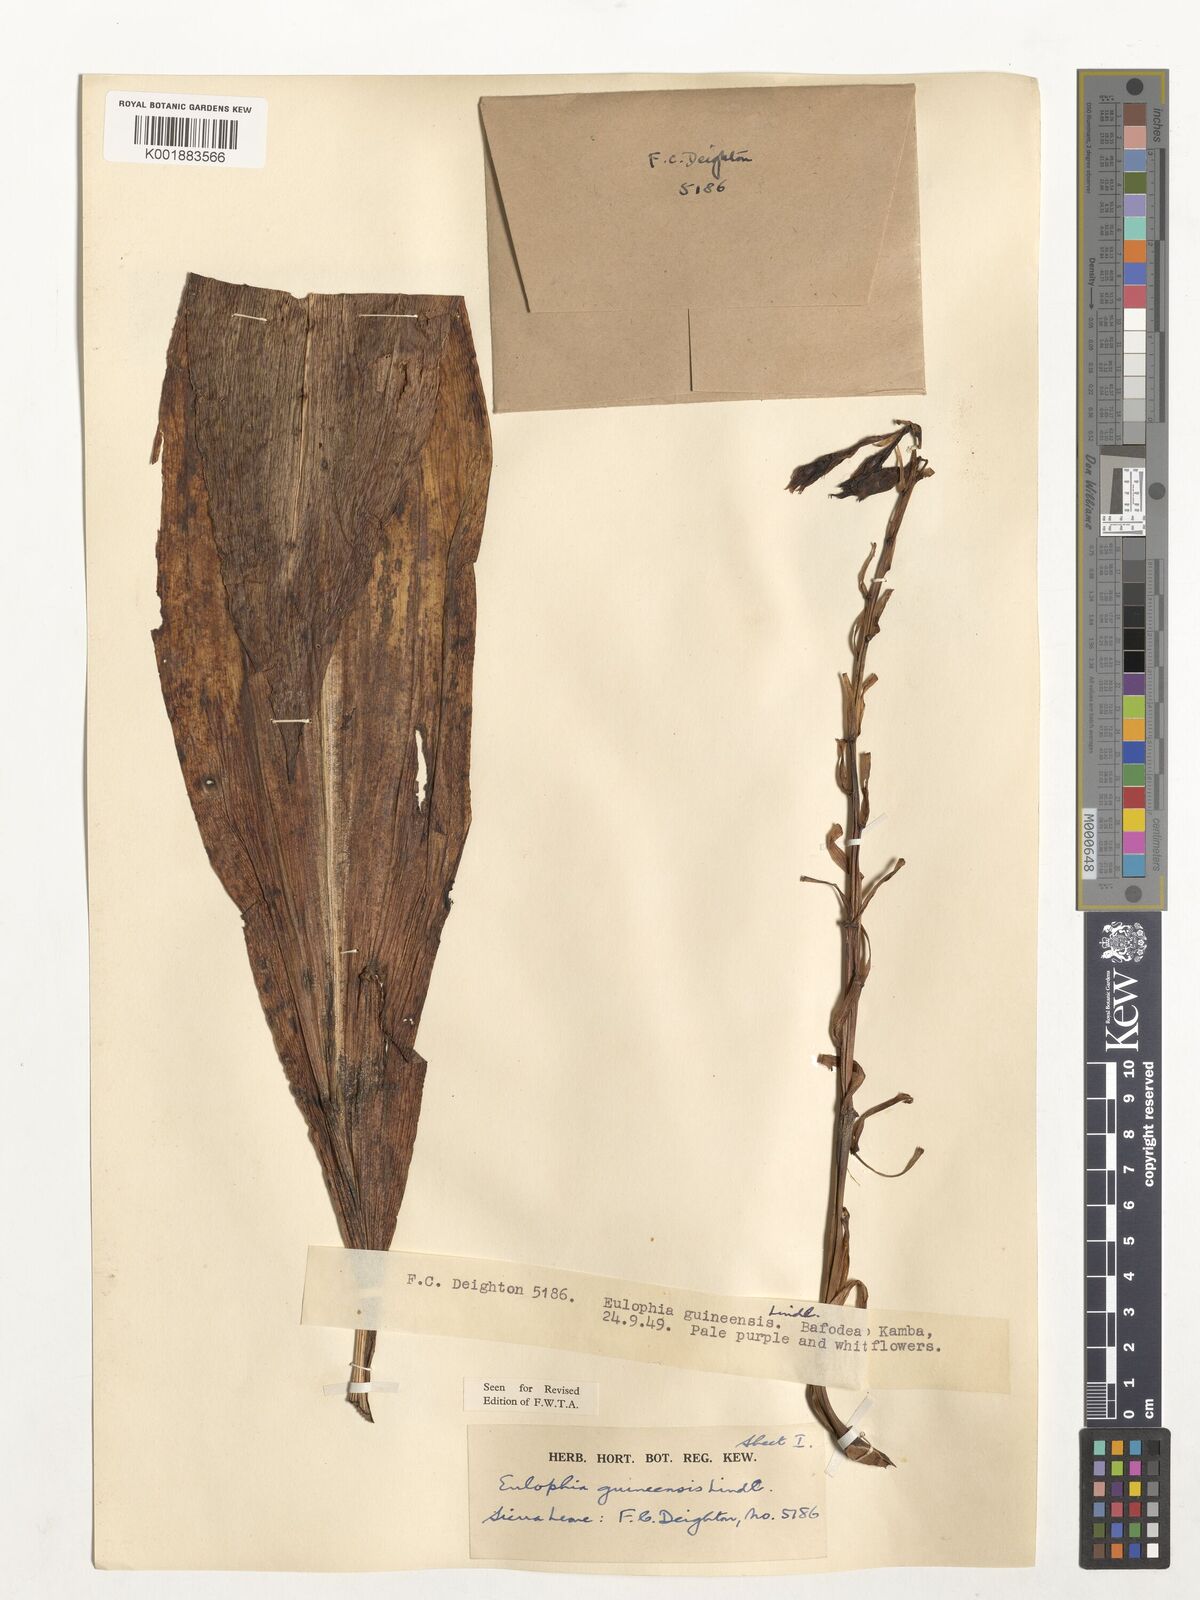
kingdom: Plantae
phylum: Tracheophyta
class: Liliopsida
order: Asparagales
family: Orchidaceae
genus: Calyptrochilum
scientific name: Calyptrochilum christyanum
